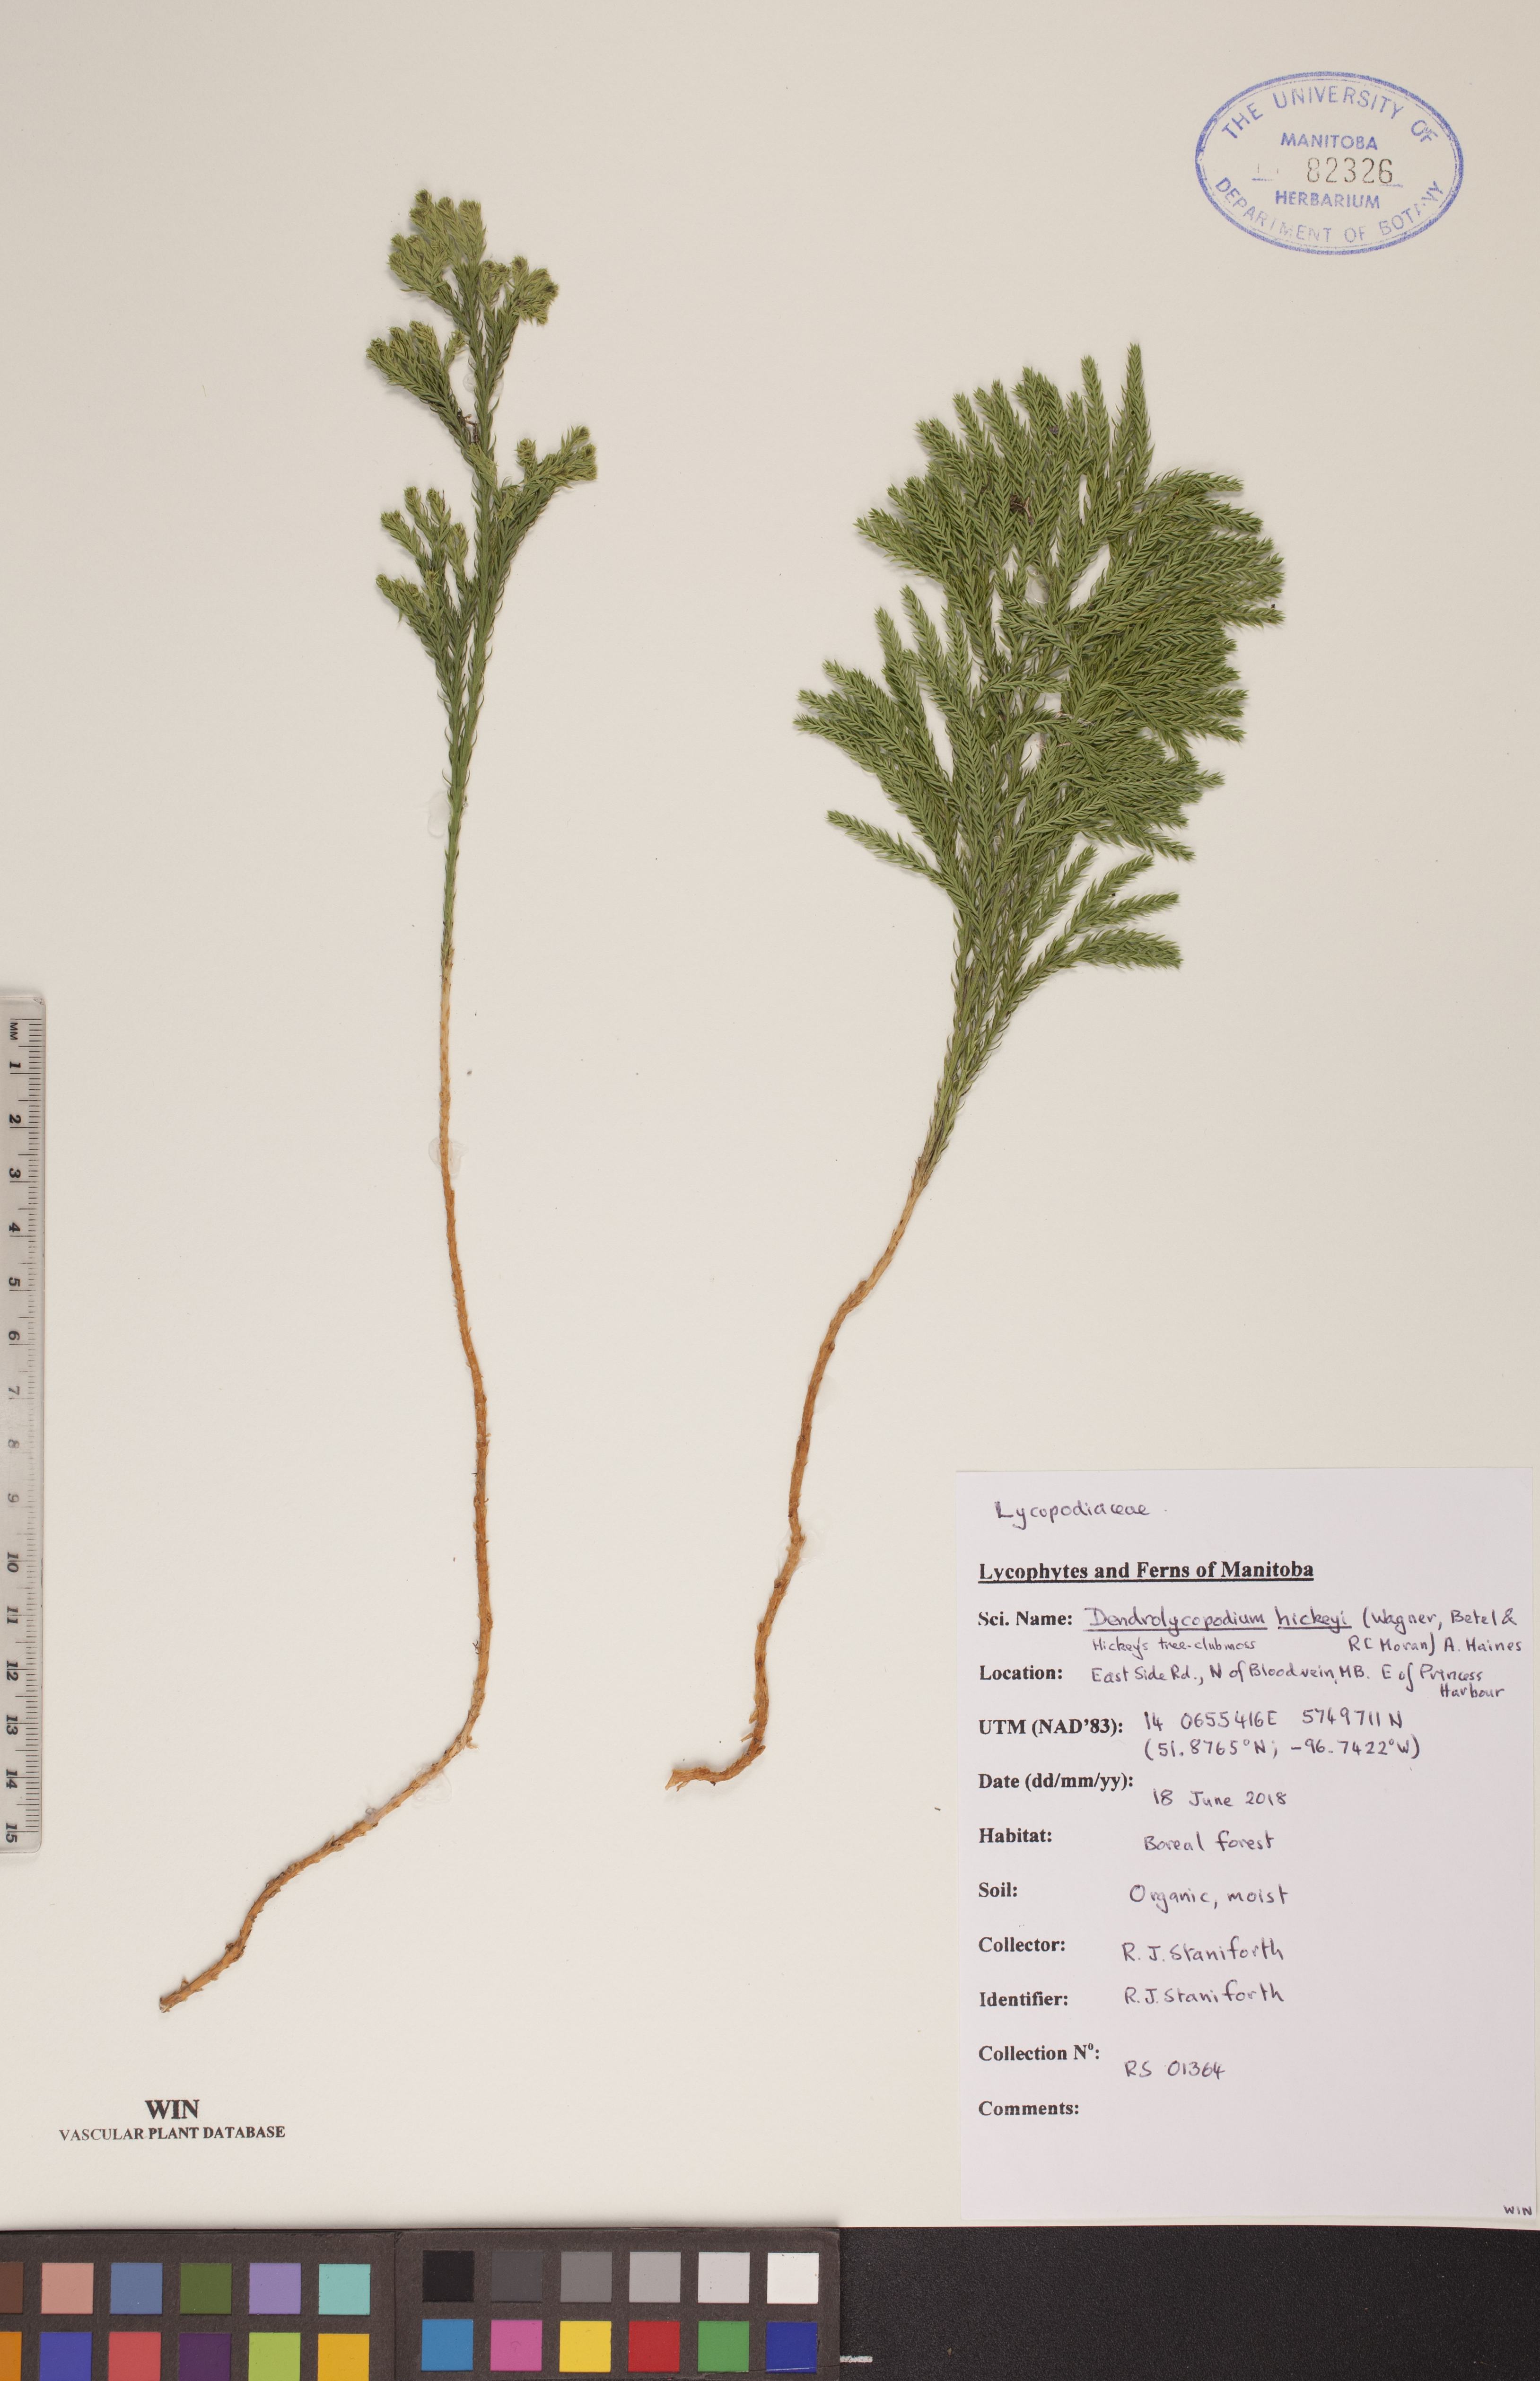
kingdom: Plantae
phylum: Tracheophyta
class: Lycopodiopsida
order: Lycopodiales
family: Lycopodiaceae
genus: Dendrolycopodium
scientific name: Dendrolycopodium hickeyi
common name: Hickey's clubmoss
